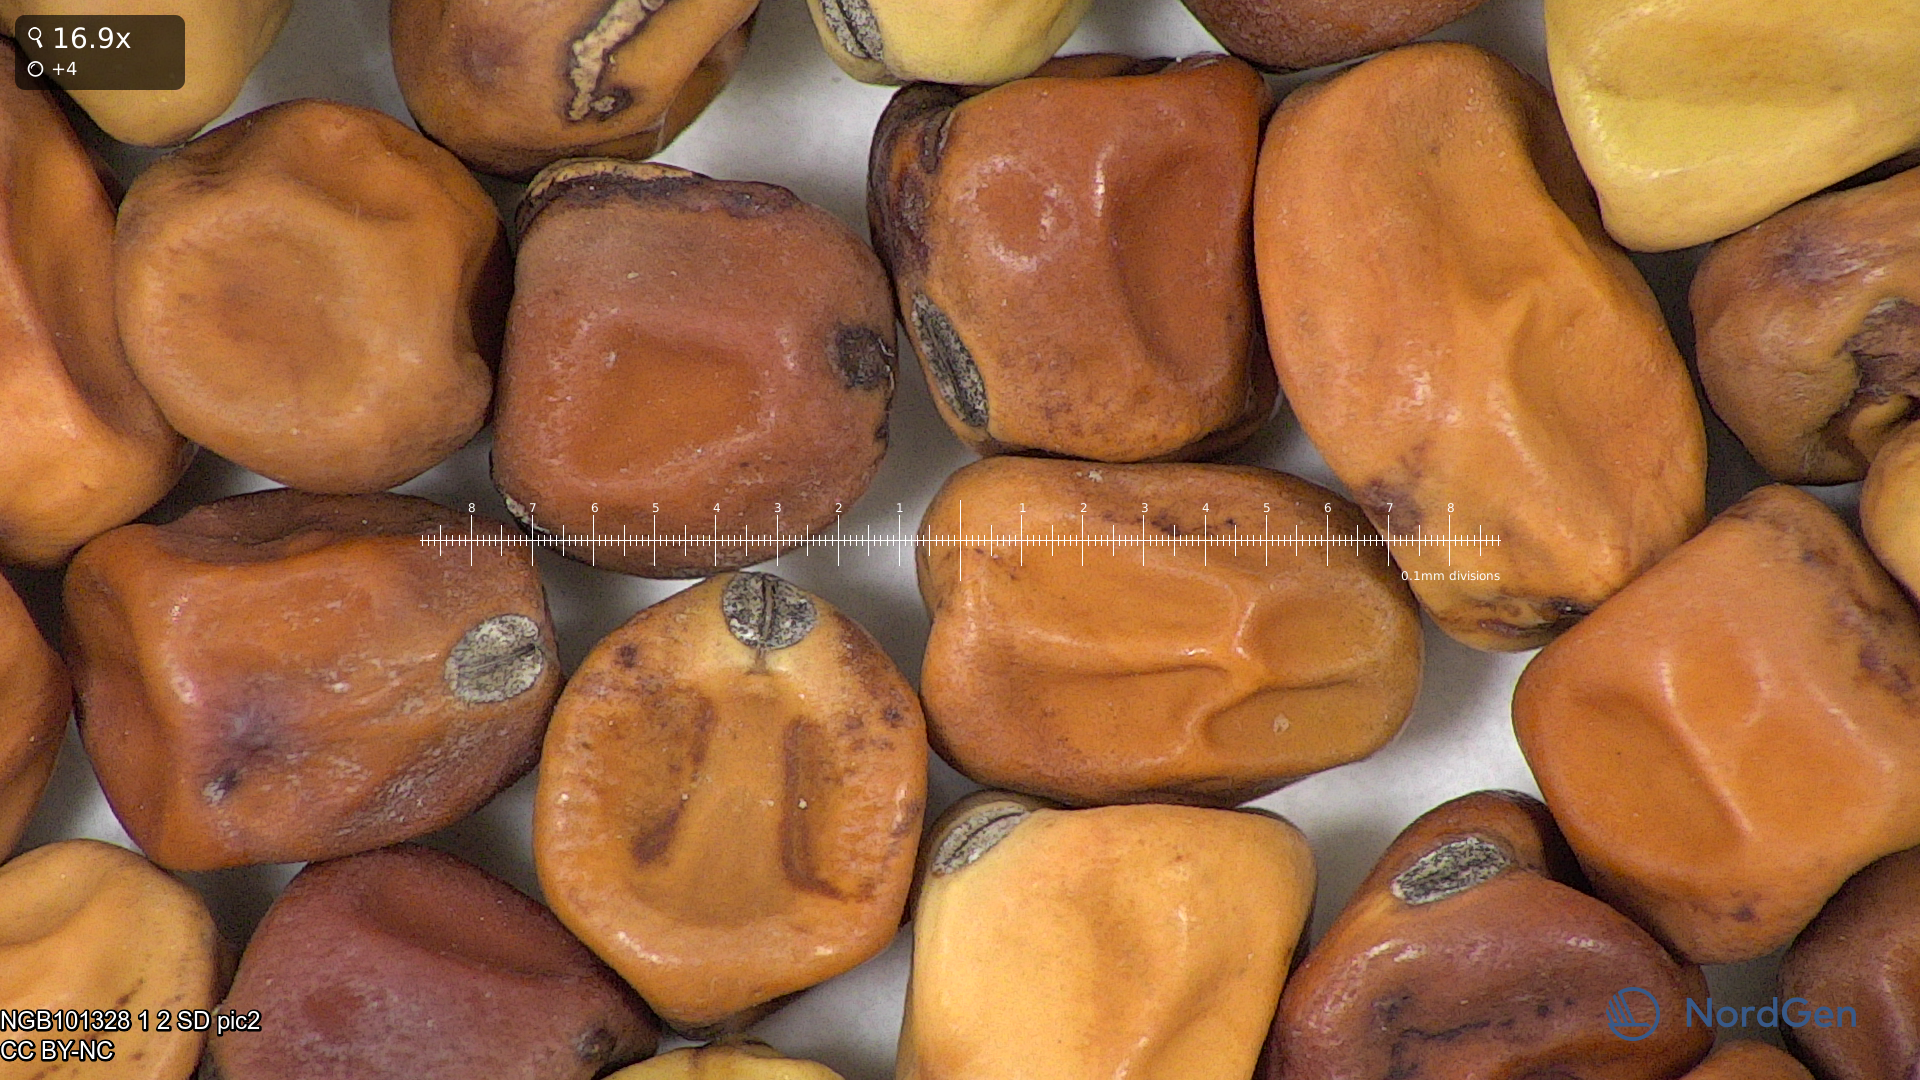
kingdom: Plantae
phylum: Tracheophyta
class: Magnoliopsida
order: Fabales
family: Fabaceae
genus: Lathyrus
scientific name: Lathyrus oleraceus
